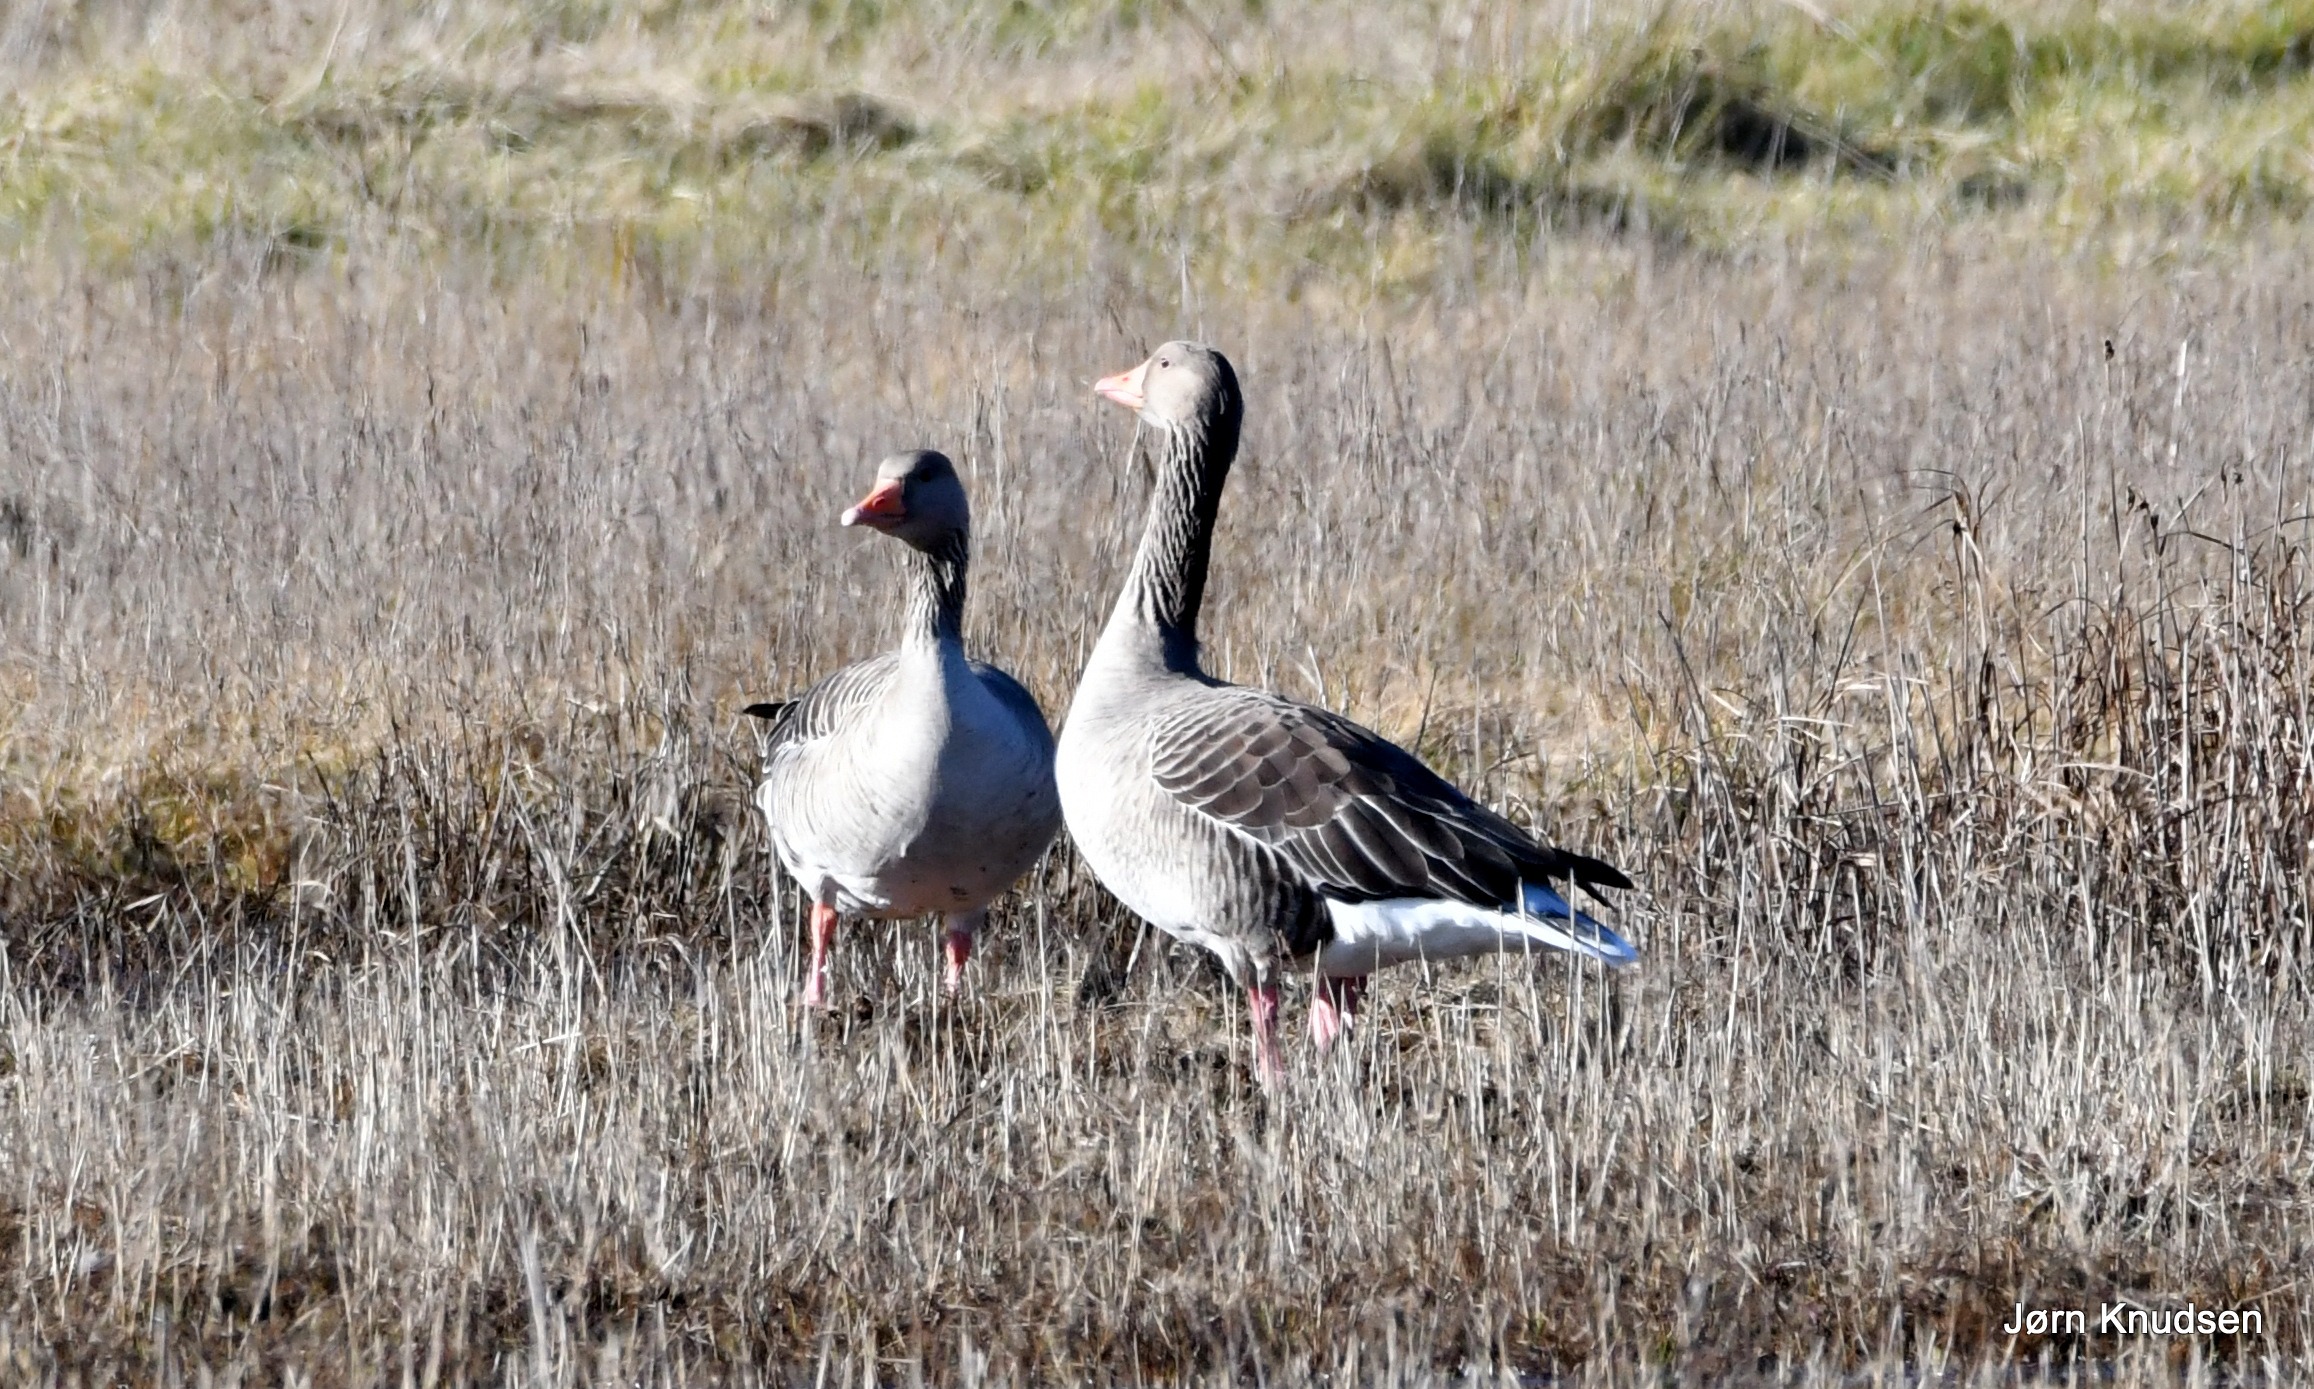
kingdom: Animalia
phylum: Chordata
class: Aves
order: Anseriformes
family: Anatidae
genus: Anser
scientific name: Anser anser
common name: Grågås
